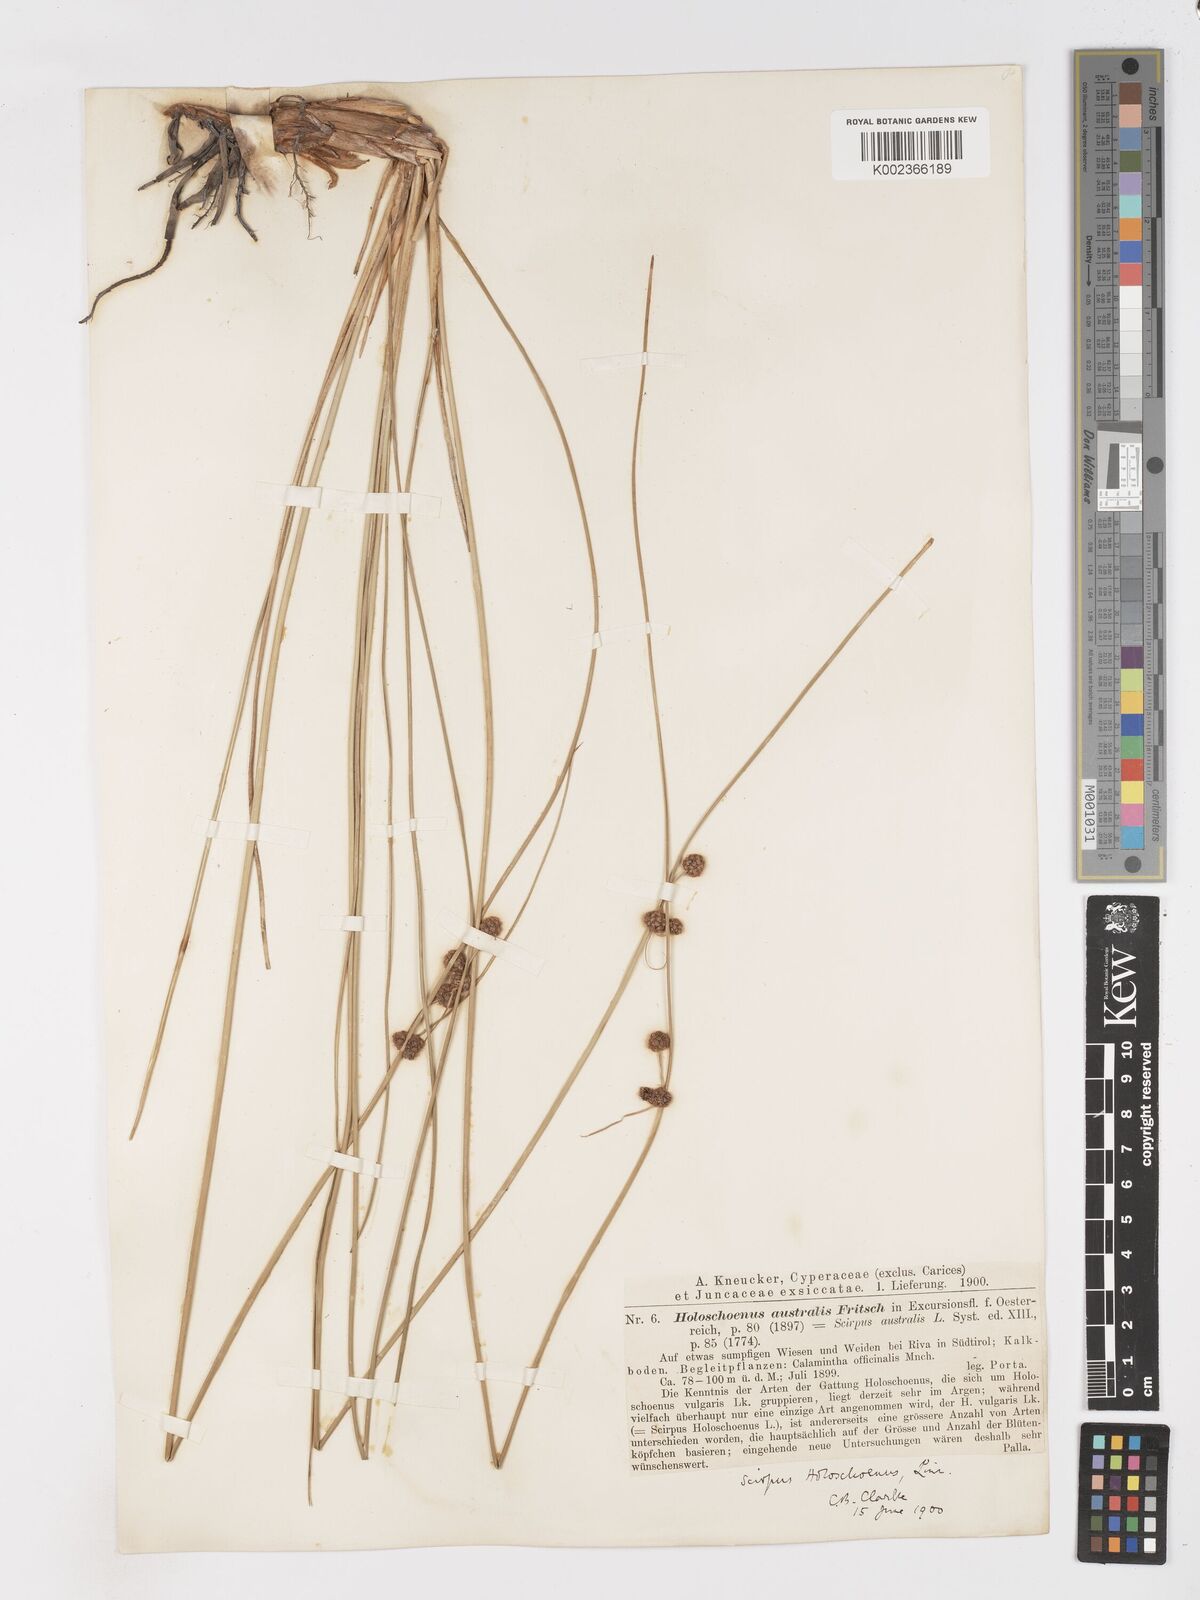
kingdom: Plantae
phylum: Tracheophyta
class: Liliopsida
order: Poales
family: Cyperaceae
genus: Scirpoides
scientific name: Scirpoides holoschoenus
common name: Round-headed club-rush
